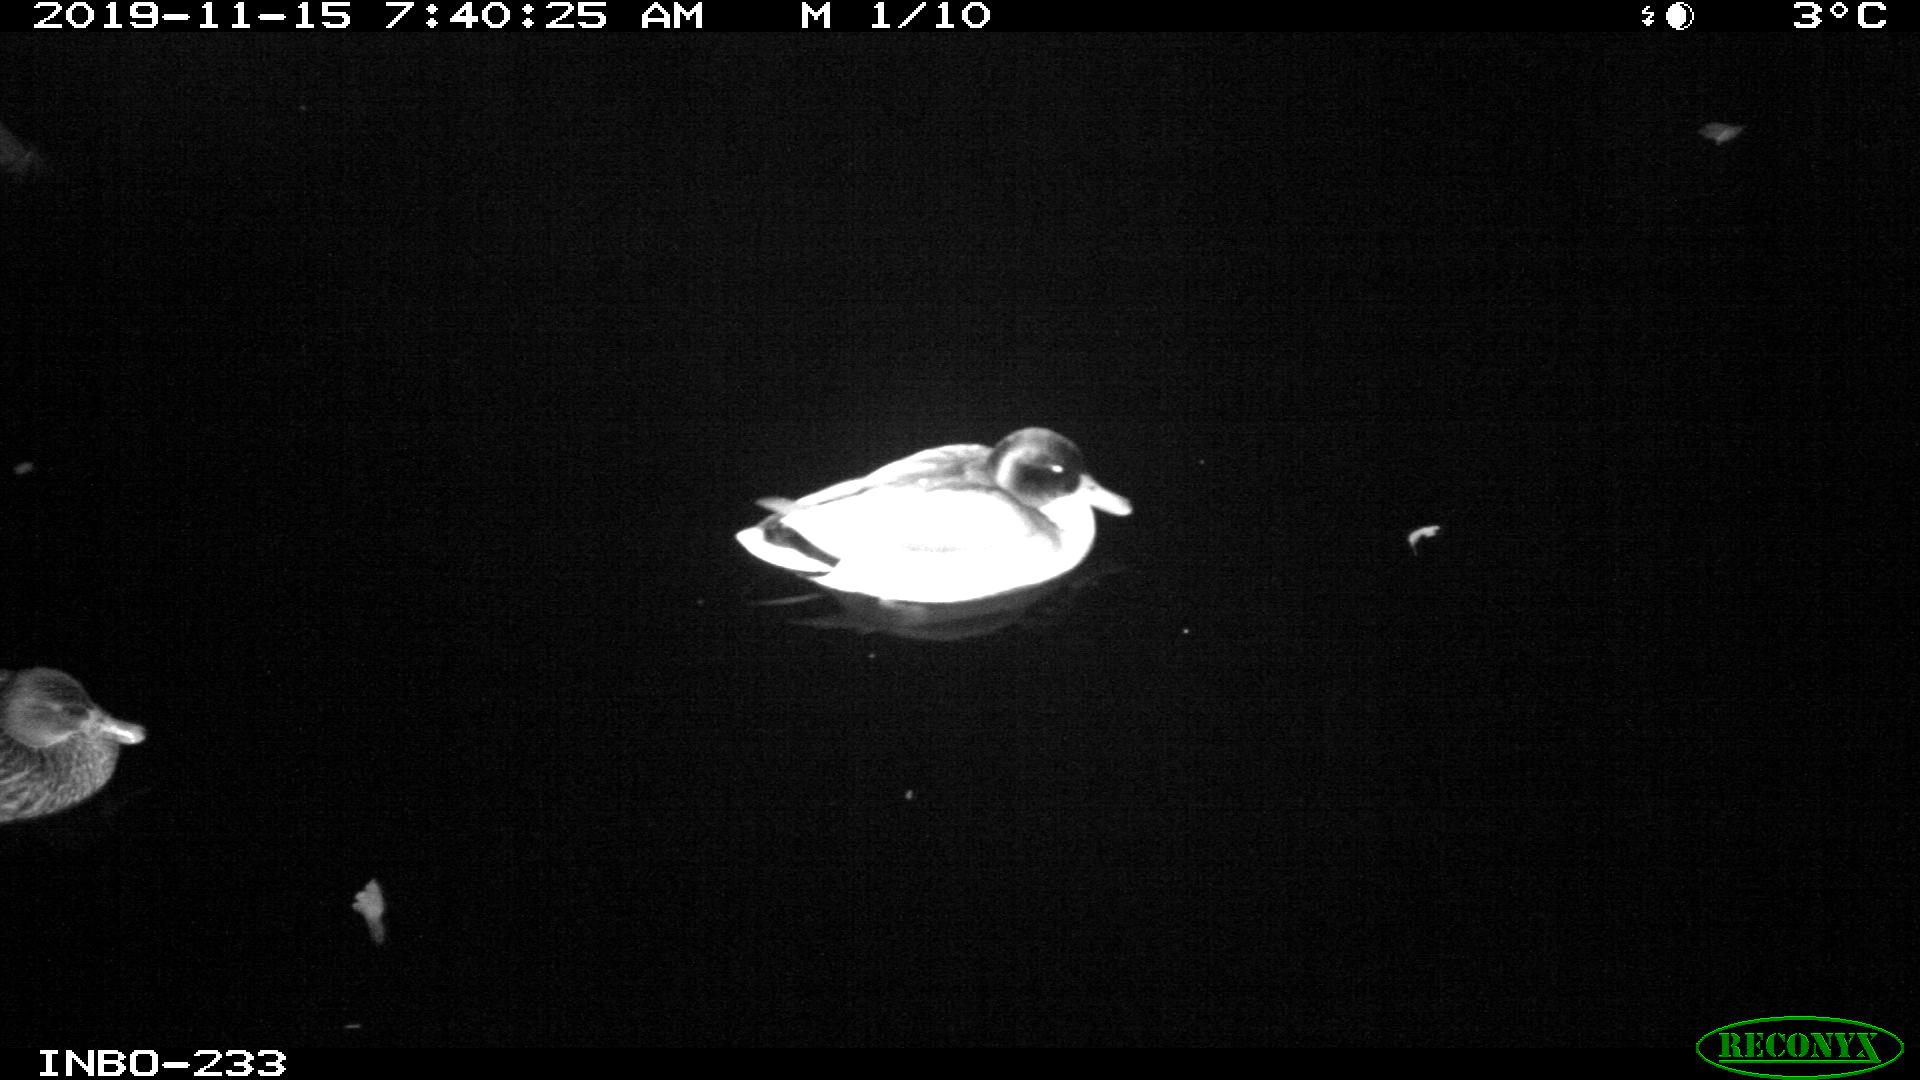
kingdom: Animalia
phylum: Chordata
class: Aves
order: Anseriformes
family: Anatidae
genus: Anas
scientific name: Anas platyrhynchos
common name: Mallard
